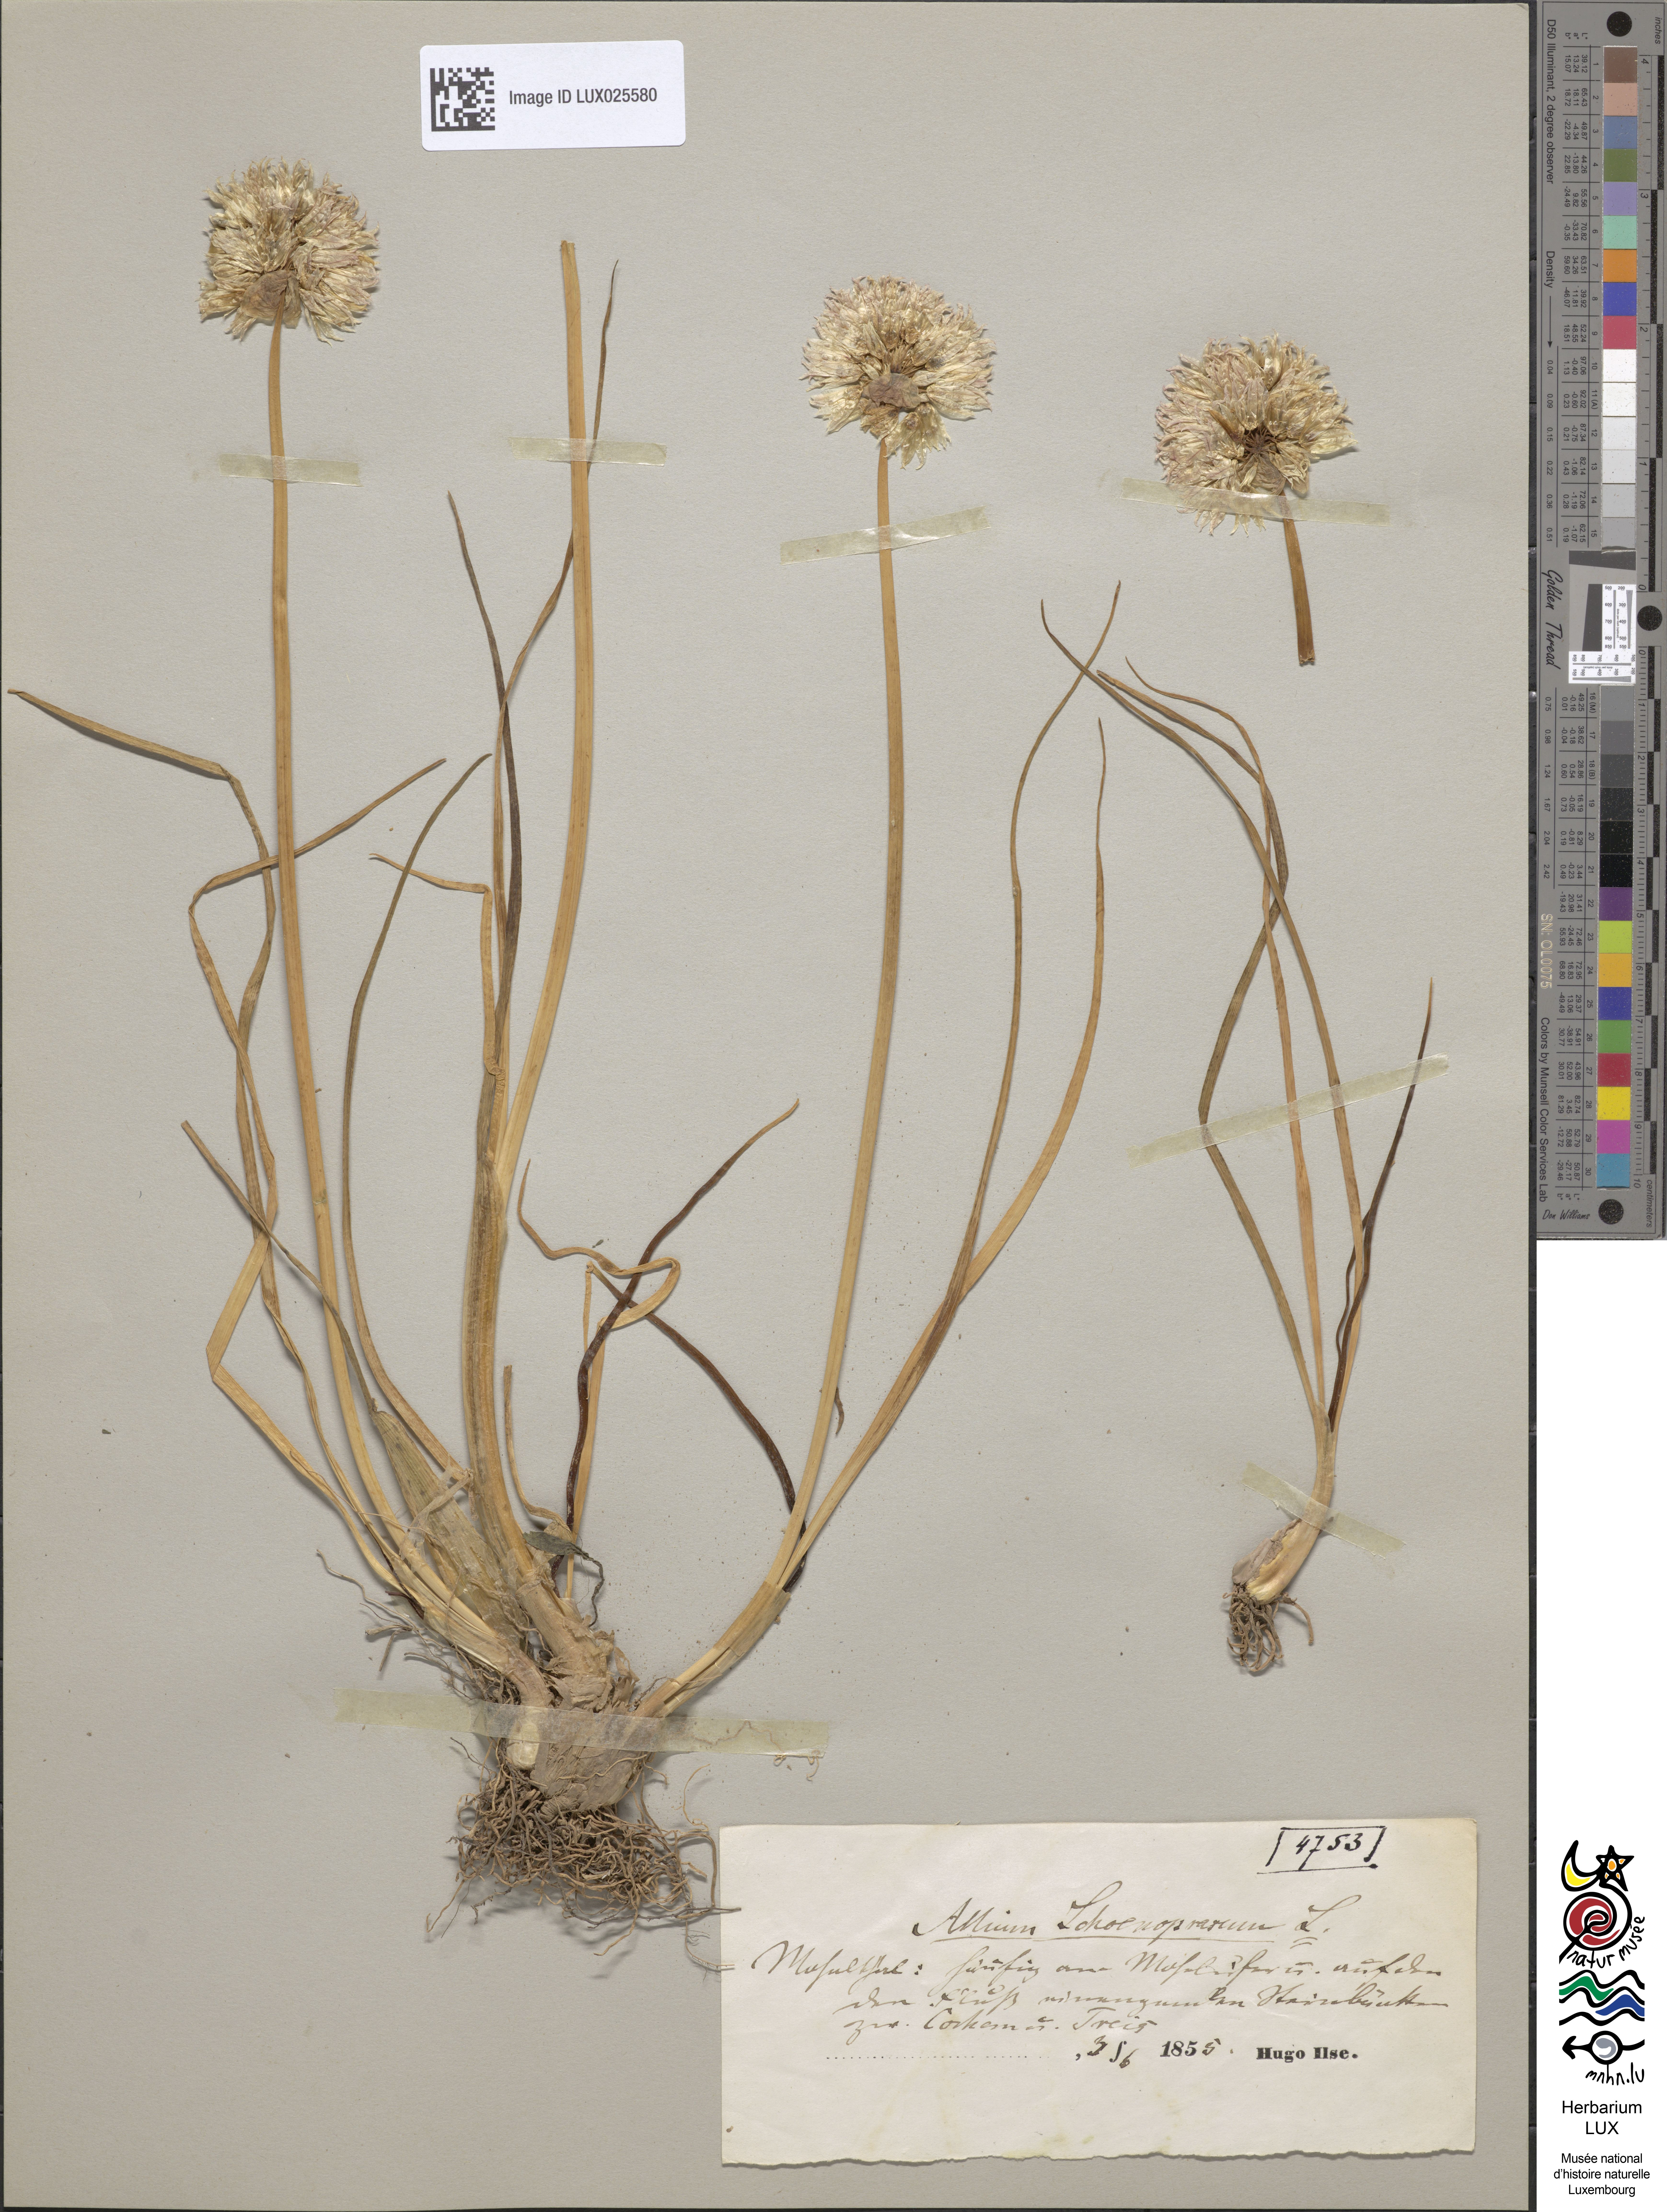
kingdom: Plantae
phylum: Tracheophyta
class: Liliopsida
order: Asparagales
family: Amaryllidaceae
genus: Allium
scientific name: Allium schoenoprasum
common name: Chives
